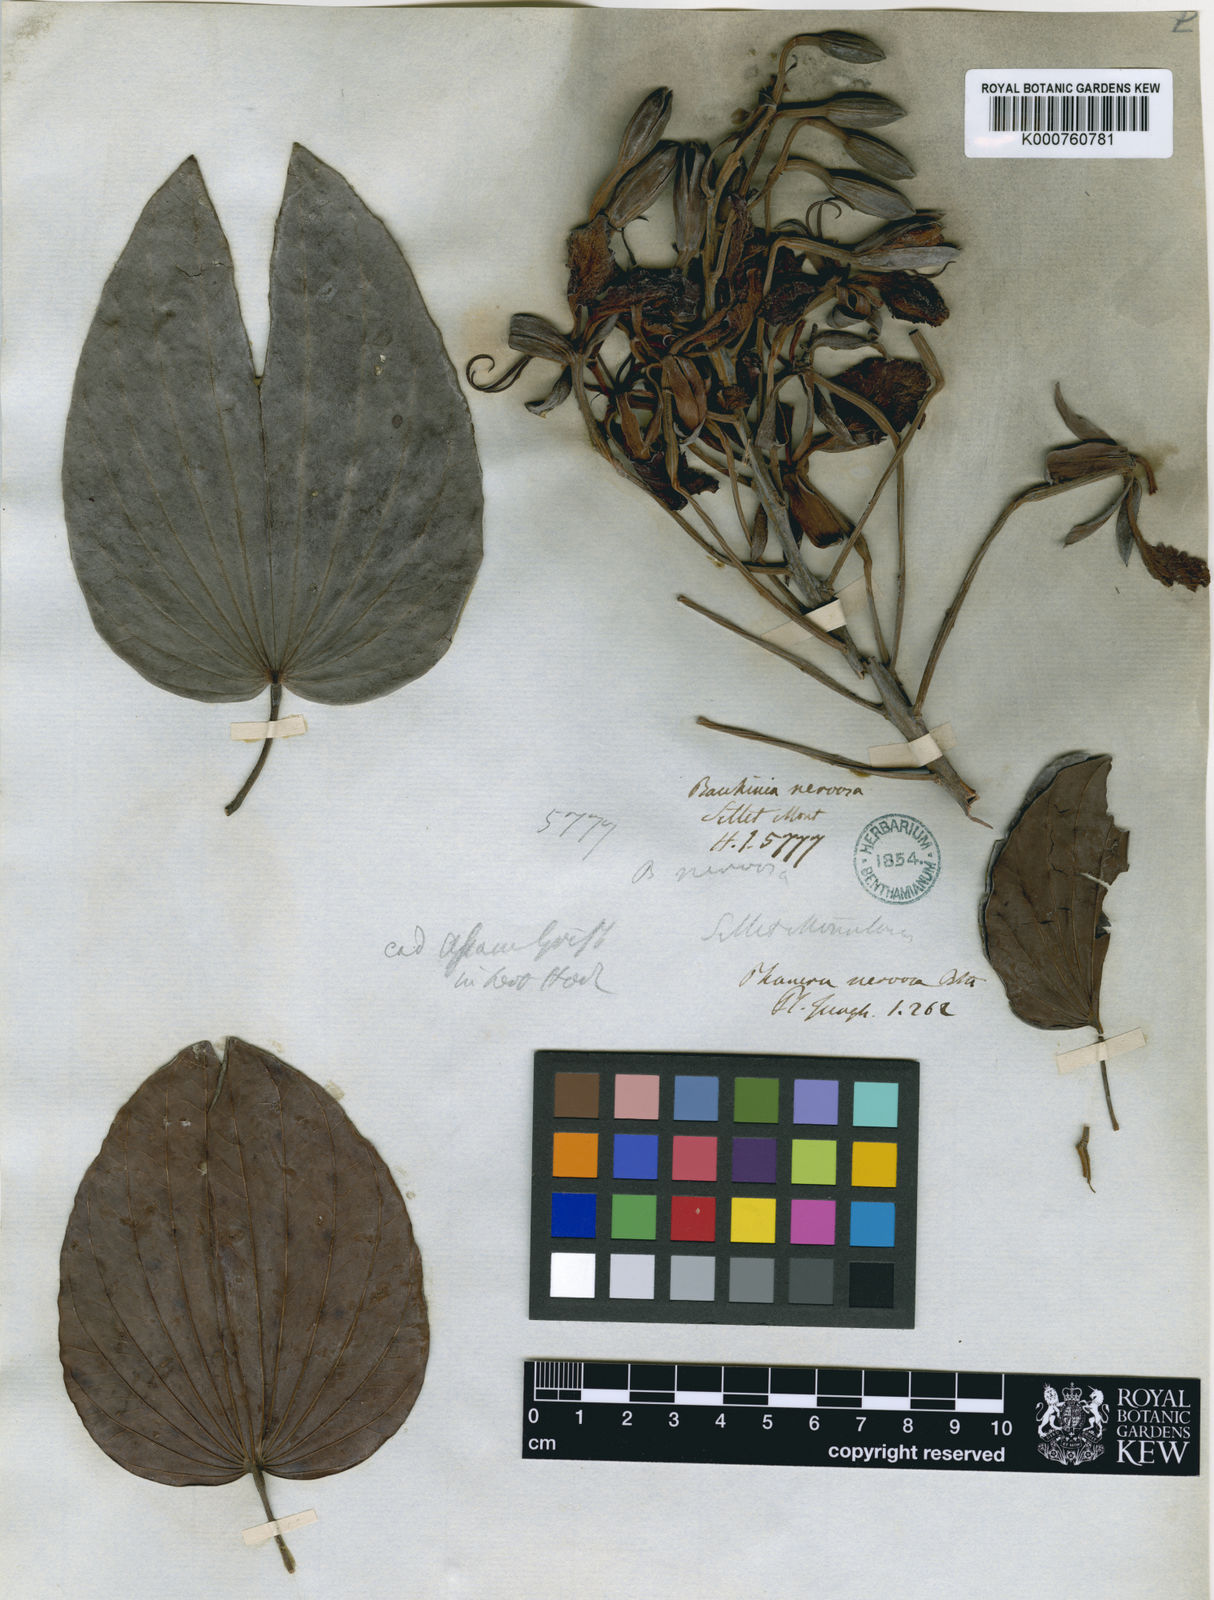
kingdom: Plantae
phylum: Tracheophyta
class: Magnoliopsida
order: Fabales
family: Fabaceae
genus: Phanera
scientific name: Phanera nervosa
